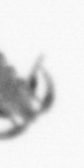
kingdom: Animalia
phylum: Arthropoda
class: Copepoda
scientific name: Copepoda
